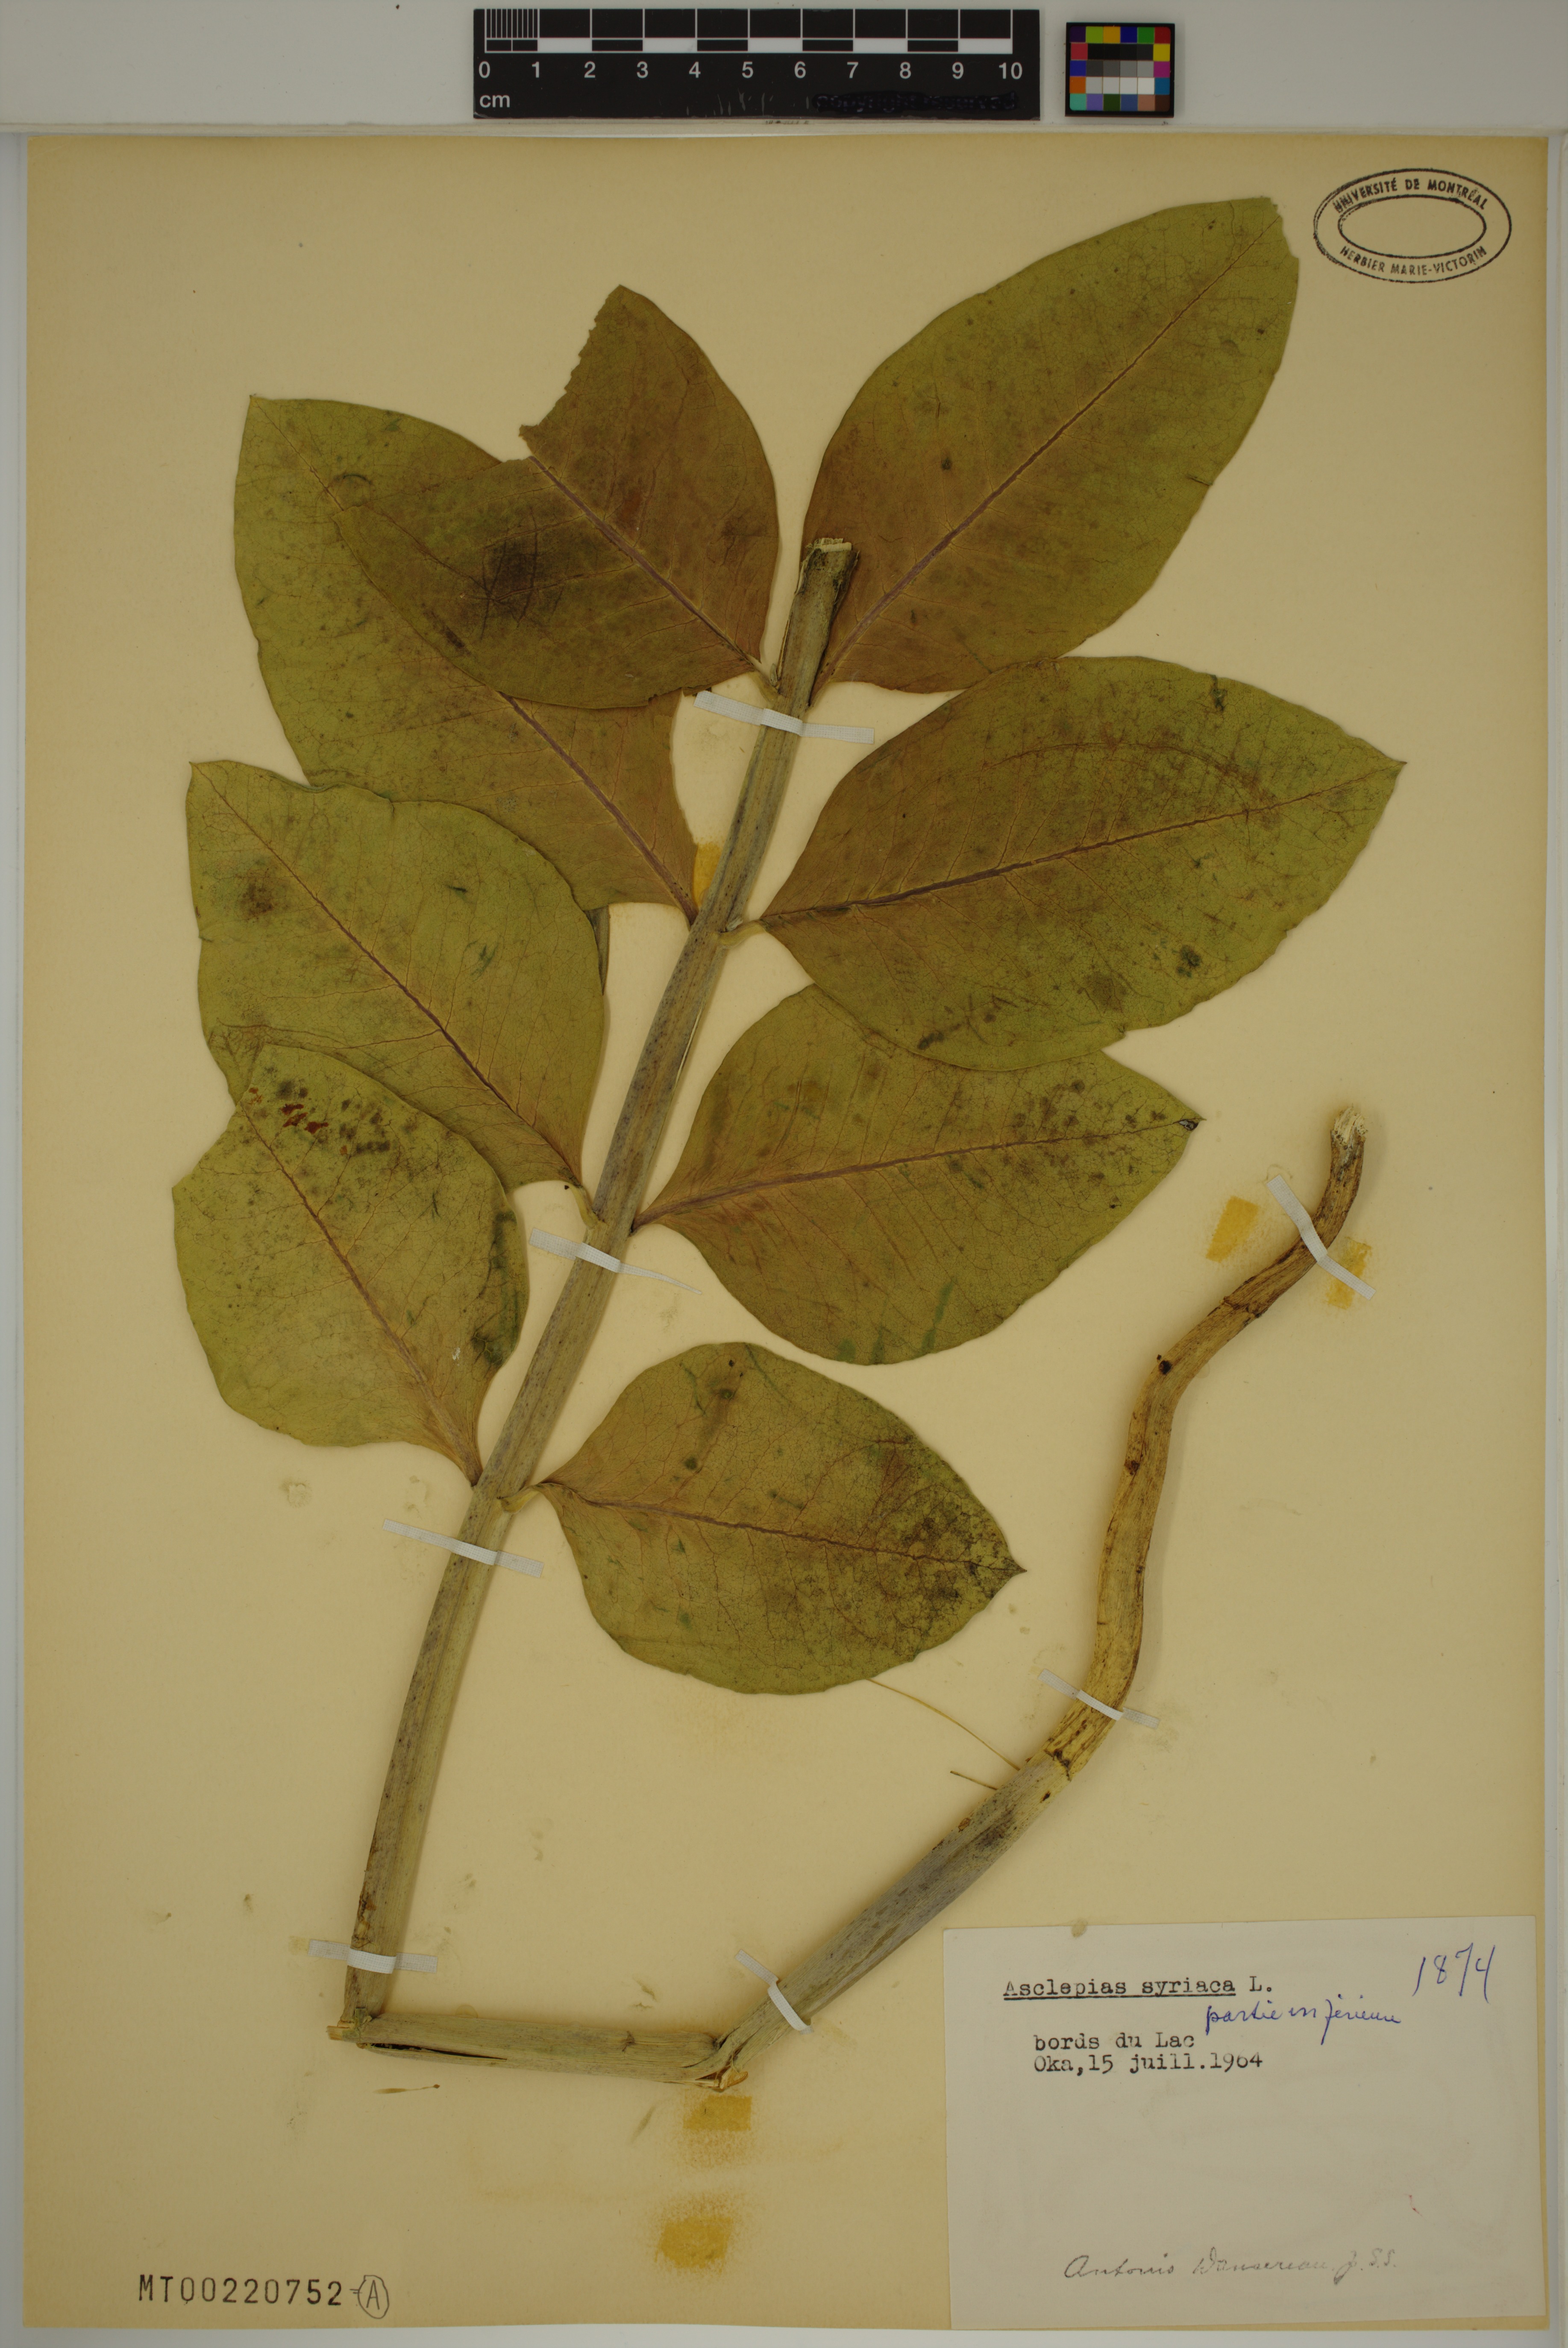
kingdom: Plantae
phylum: Tracheophyta
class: Magnoliopsida
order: Gentianales
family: Apocynaceae
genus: Asclepias
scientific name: Asclepias syriaca
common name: Common milkweed
